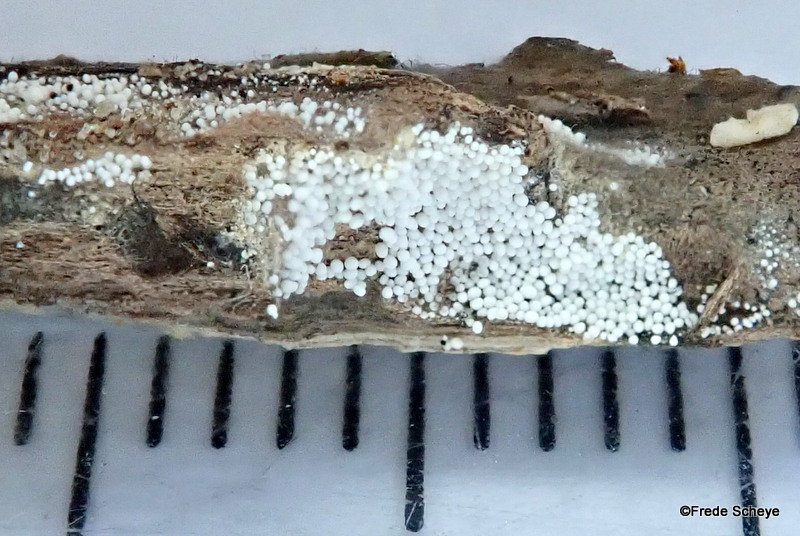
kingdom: Fungi
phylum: Basidiomycota
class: Agaricomycetes
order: Polyporales
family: Meruliaceae
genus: Bulbillomyces
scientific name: Bulbillomyces farinosus
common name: æg-kalkskind
